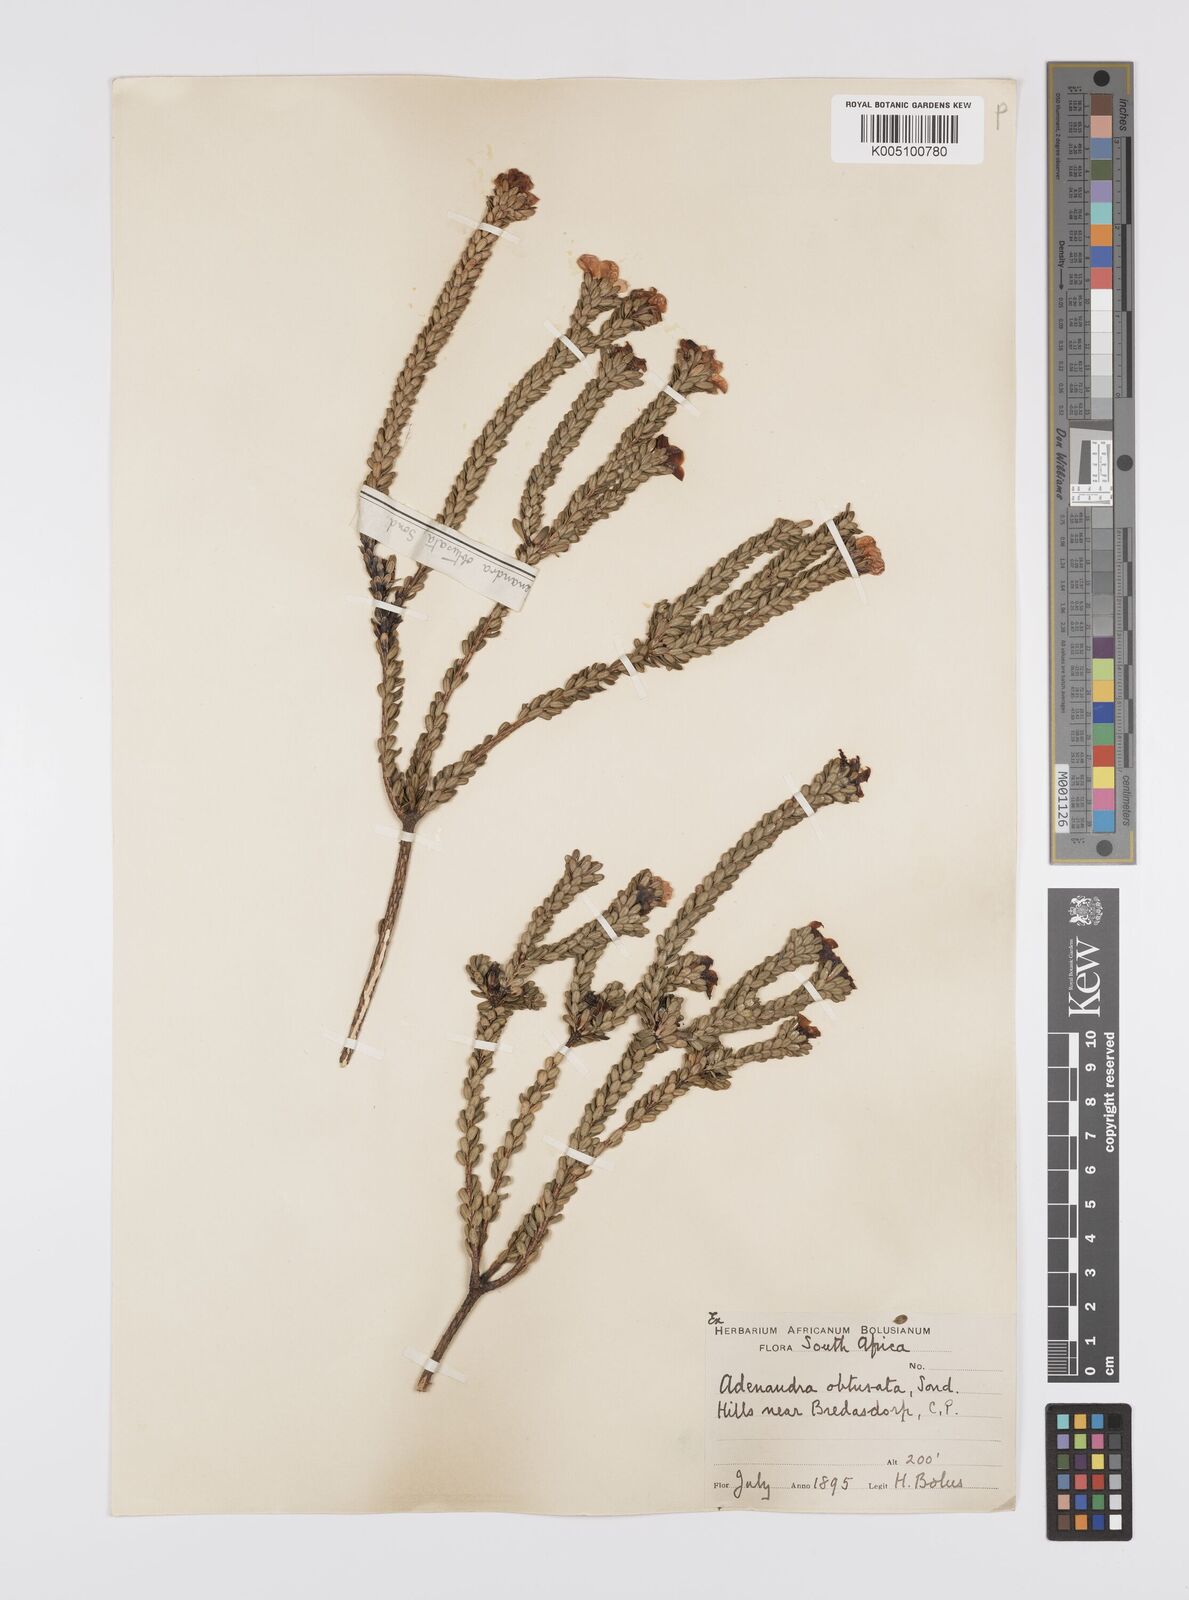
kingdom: Plantae
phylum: Tracheophyta
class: Magnoliopsida
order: Sapindales
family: Rutaceae
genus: Adenandra
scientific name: Adenandra obtusata
